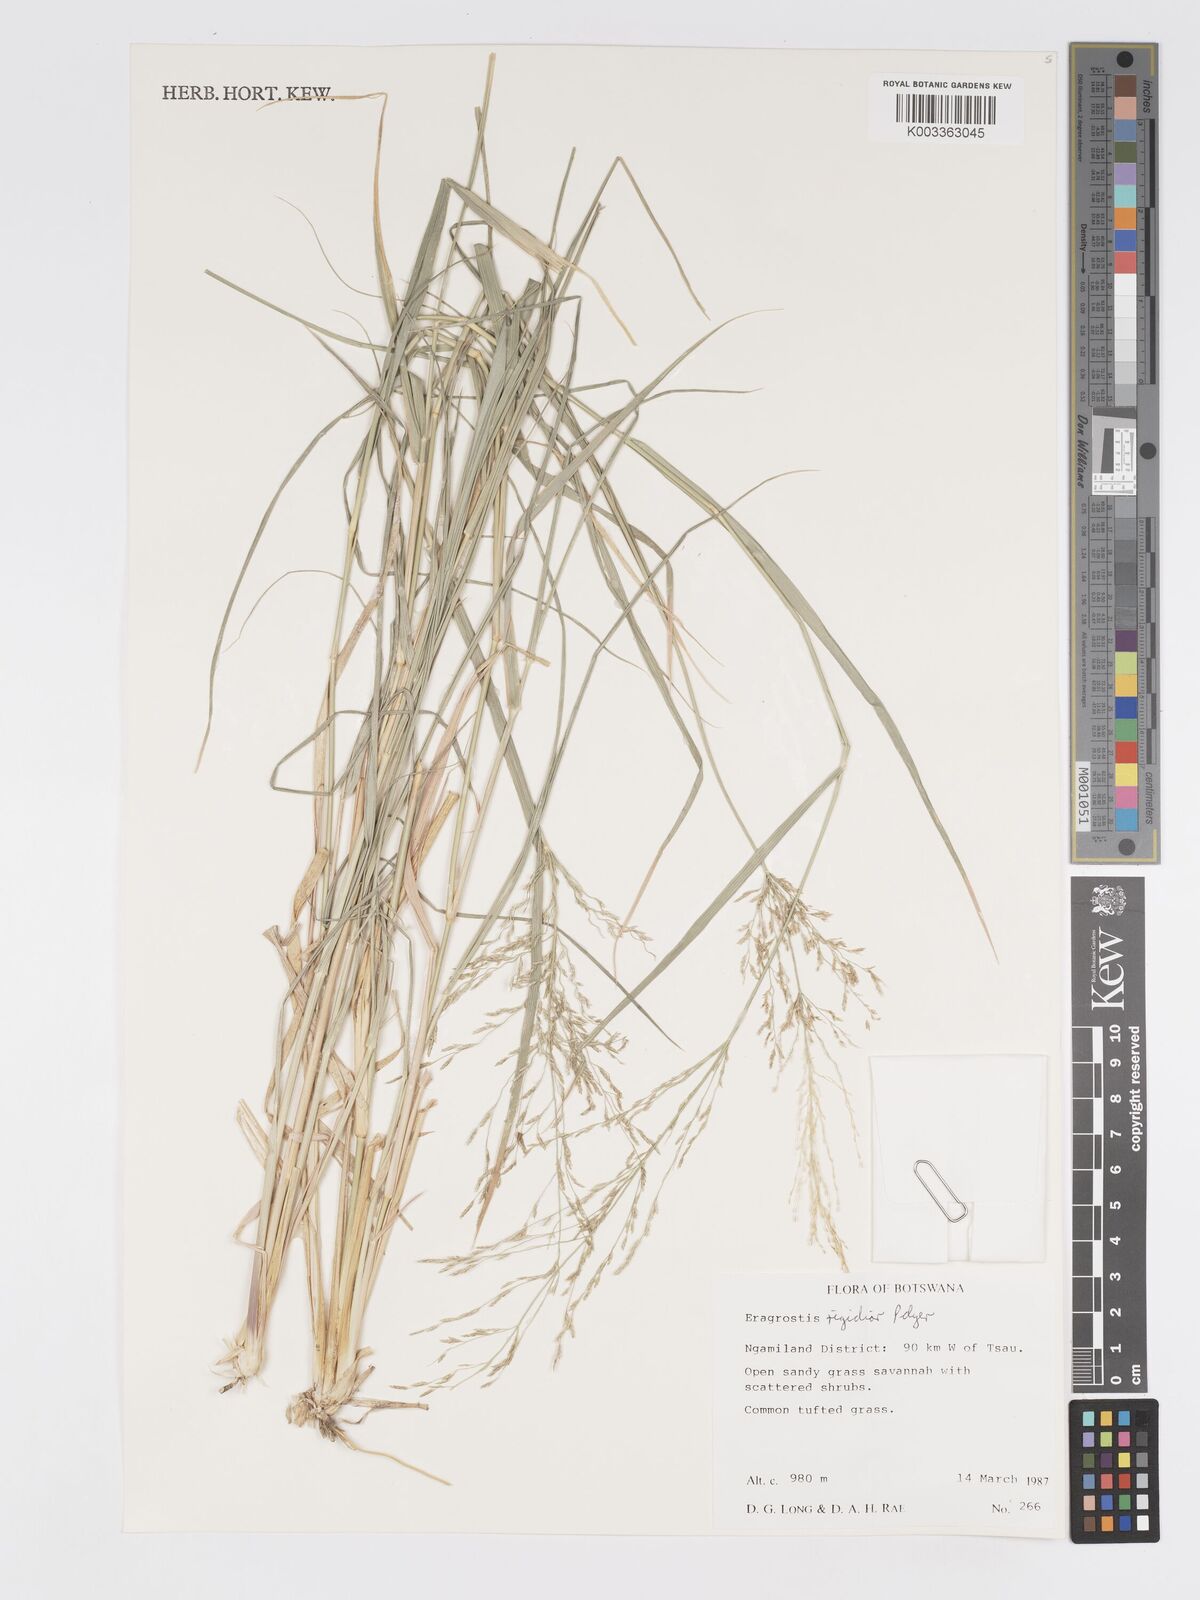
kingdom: Plantae
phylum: Tracheophyta
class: Liliopsida
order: Poales
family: Poaceae
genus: Eragrostis
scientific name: Eragrostis cylindriflora
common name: Cylinderflower lovegrass
